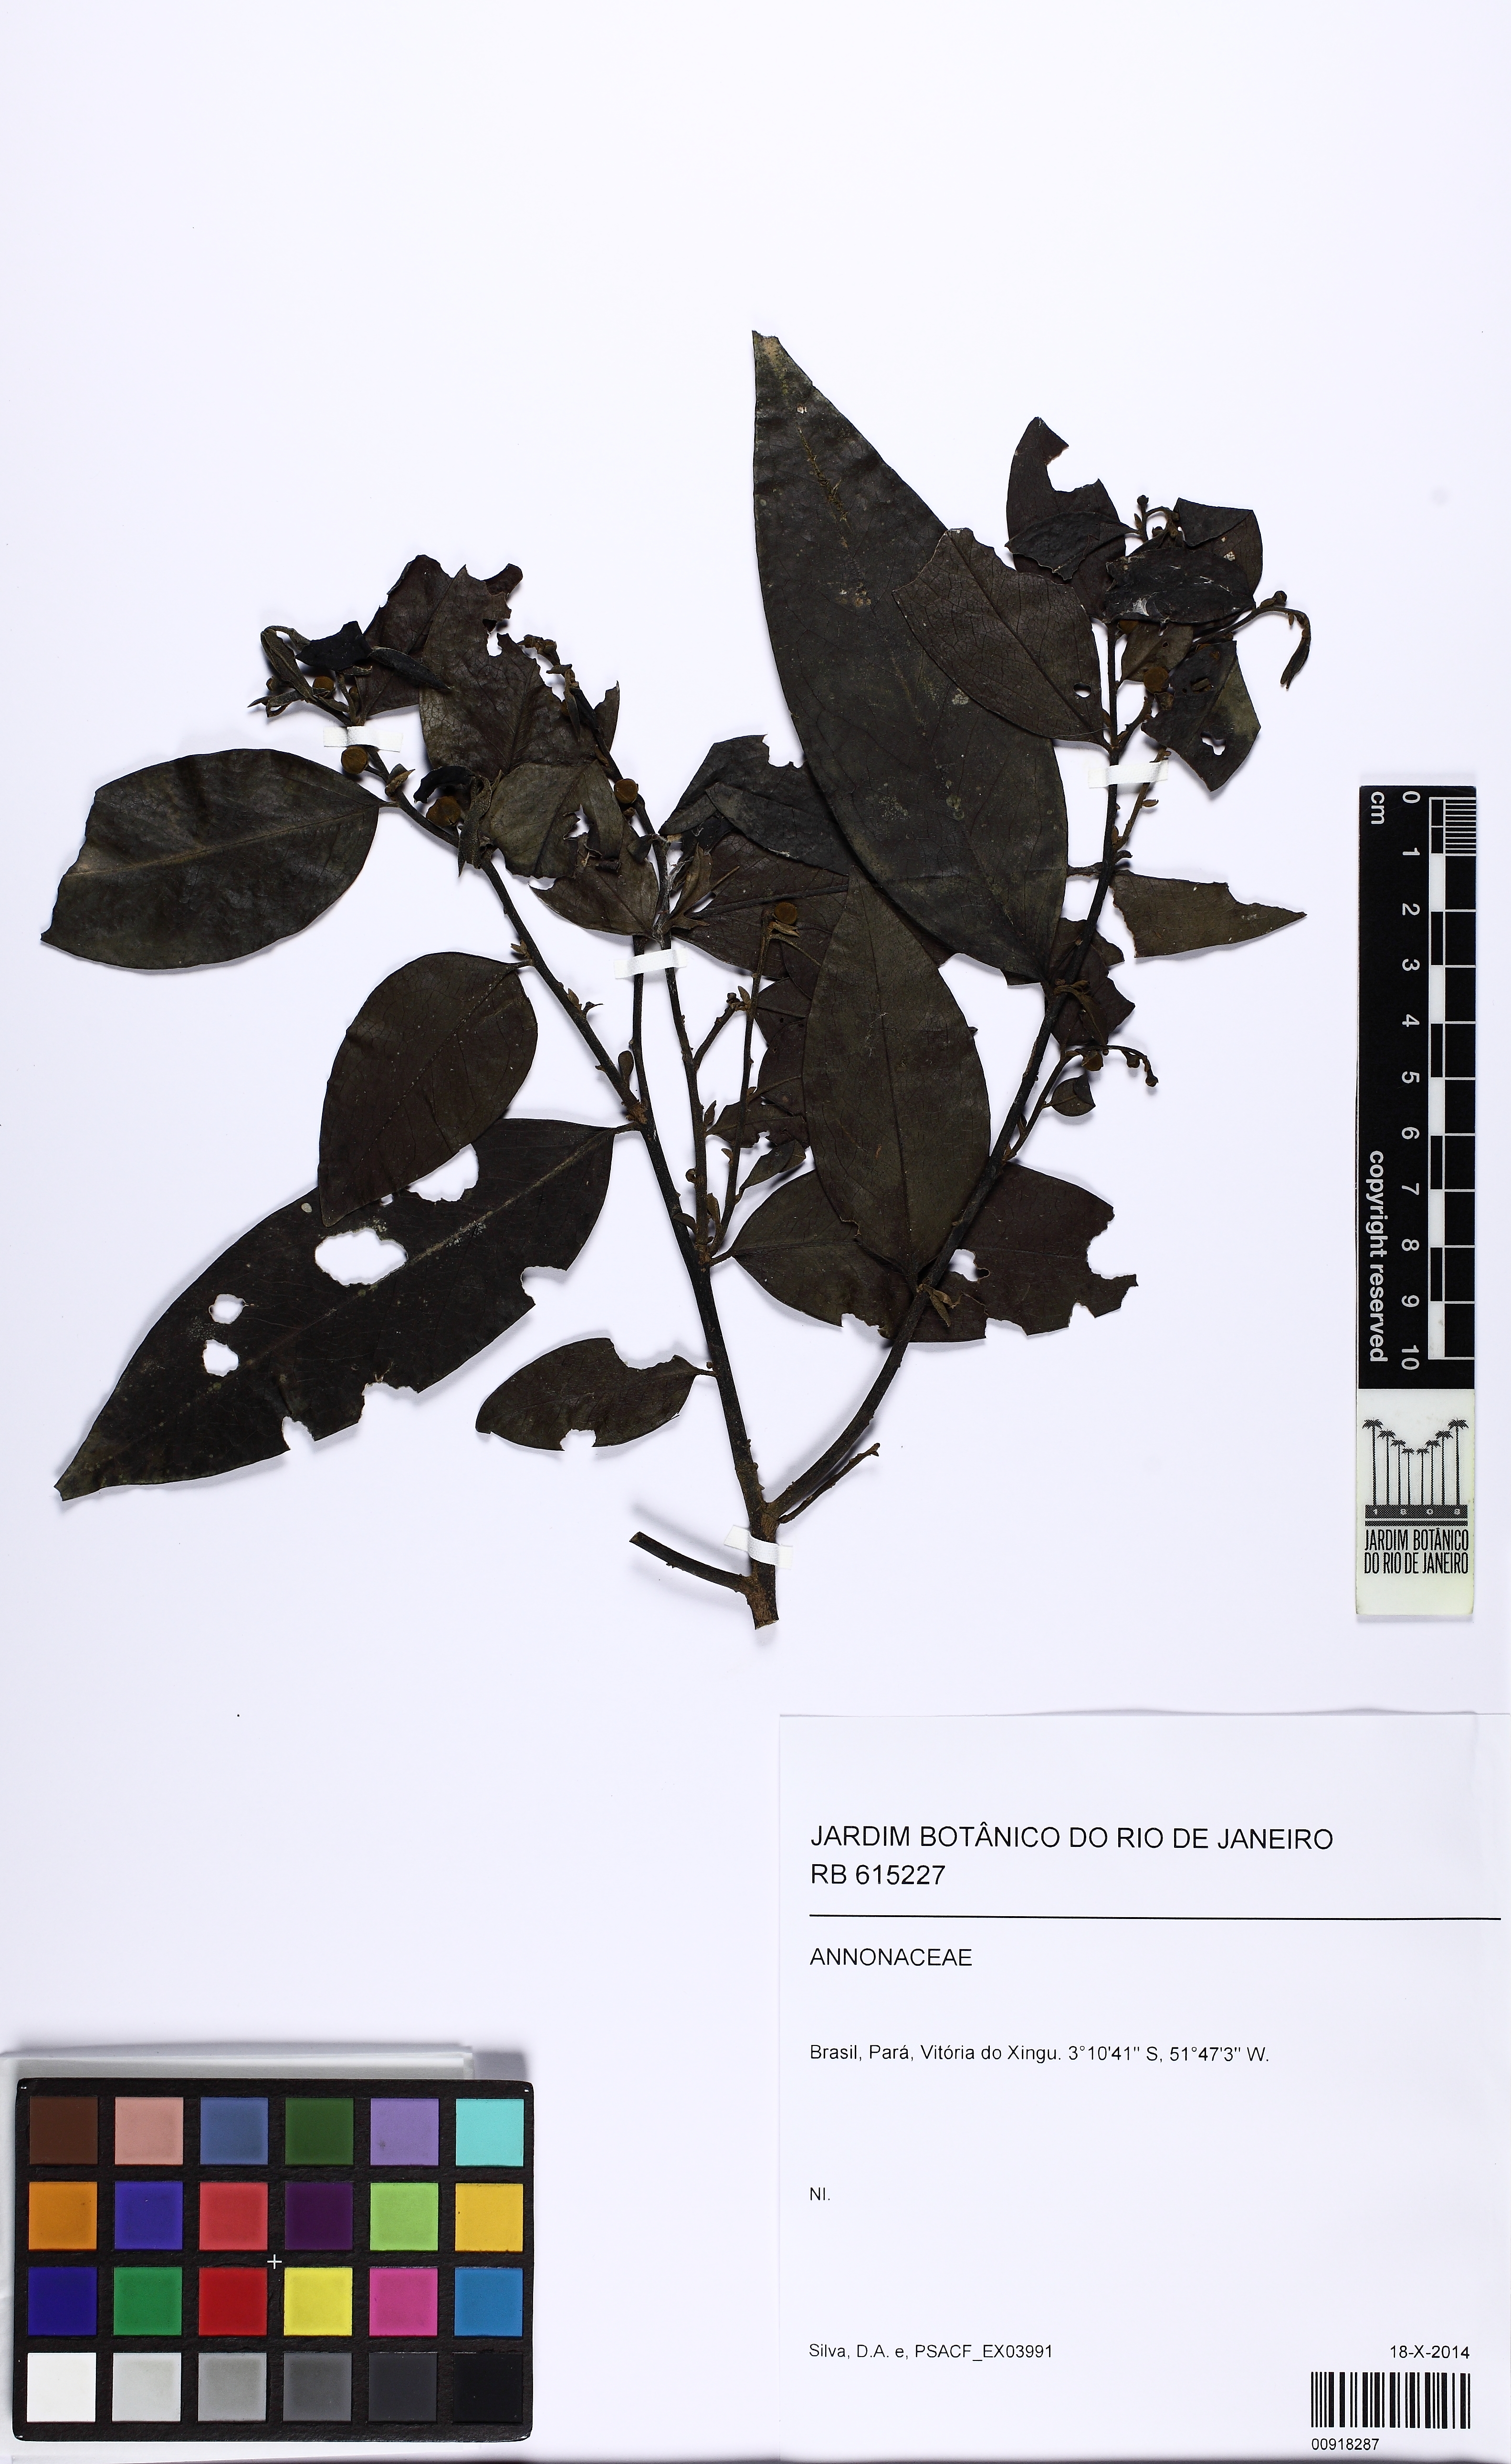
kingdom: Plantae
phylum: Tracheophyta
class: Magnoliopsida
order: Magnoliales
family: Annonaceae
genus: Trigynaea
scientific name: Trigynaea duckei
